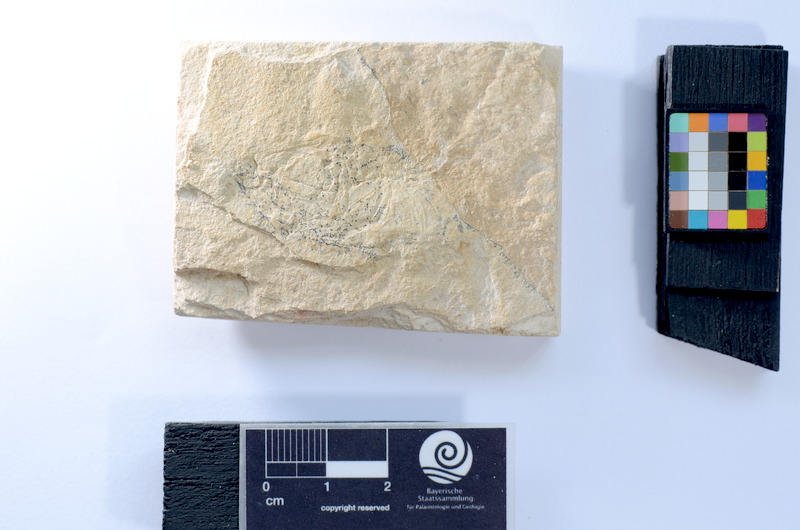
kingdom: Animalia
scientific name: Animalia
